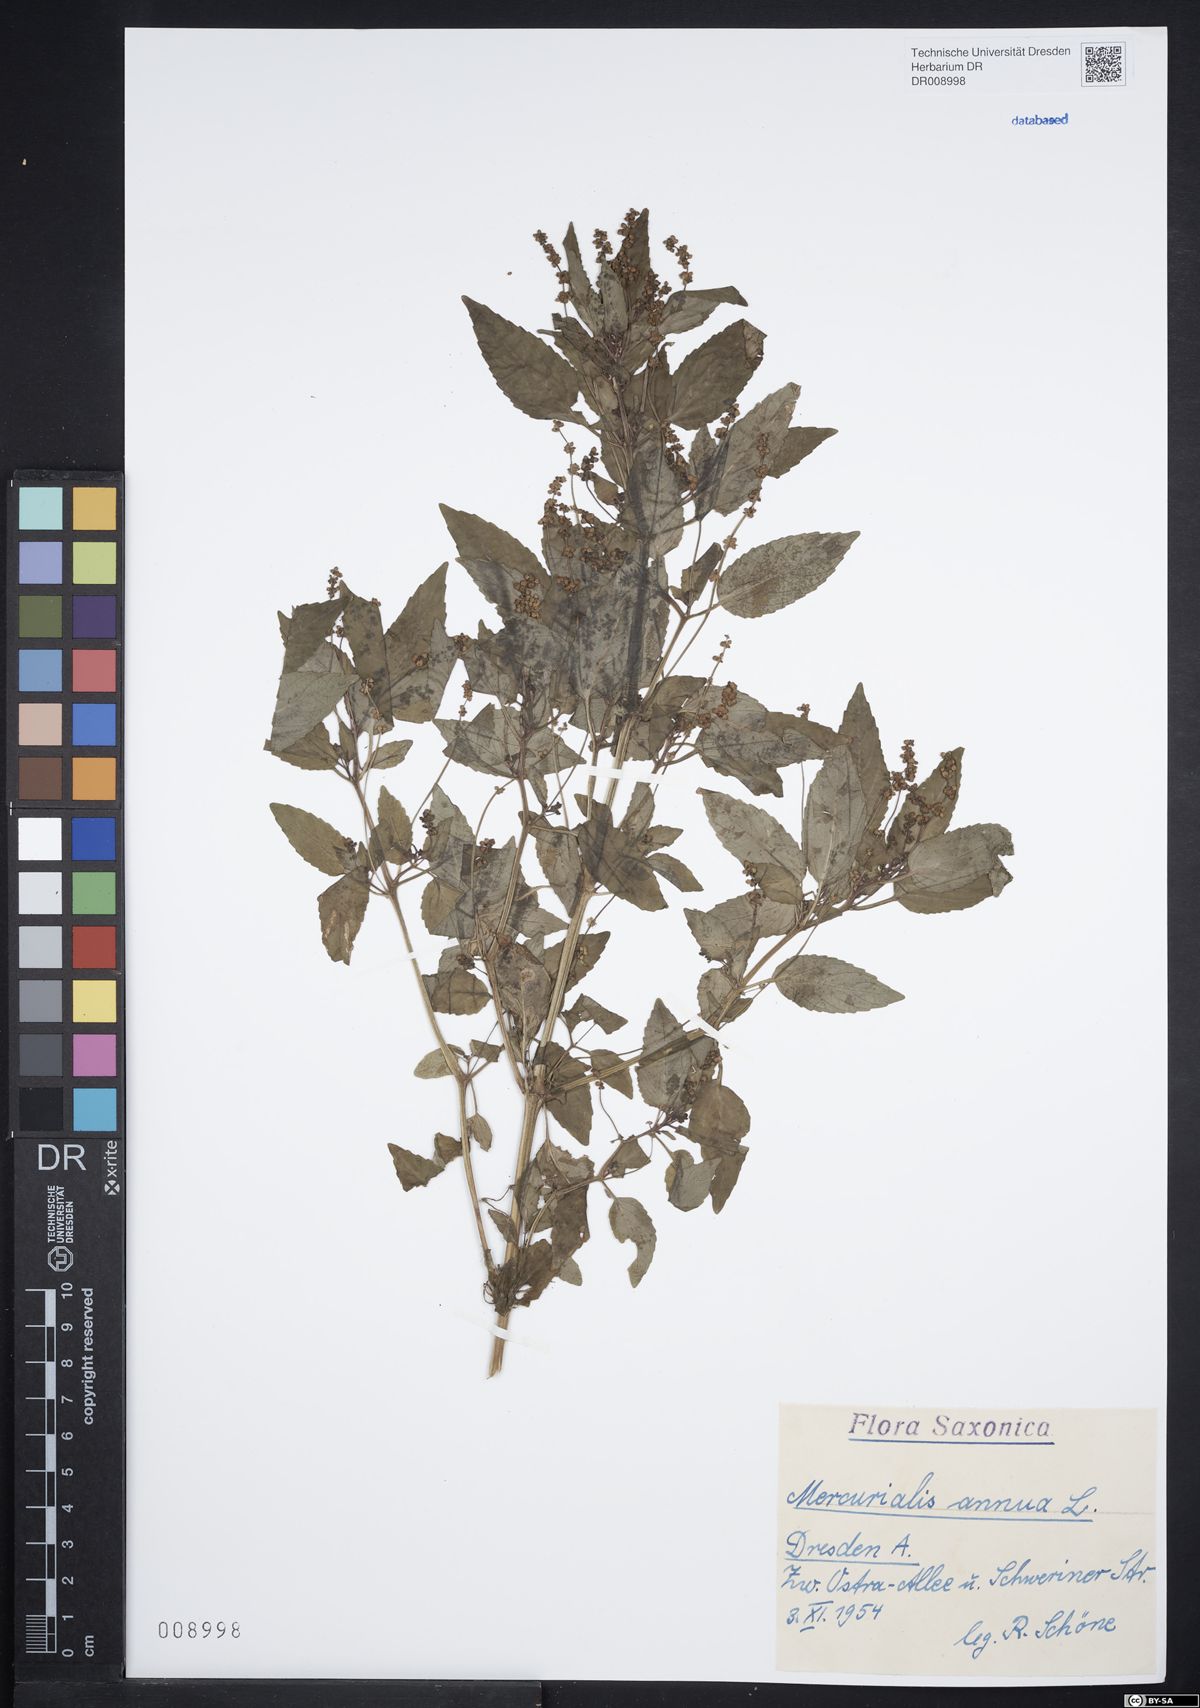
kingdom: Plantae
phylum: Tracheophyta
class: Magnoliopsida
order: Malpighiales
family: Euphorbiaceae
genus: Mercurialis
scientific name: Mercurialis annua
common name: Annual mercury
